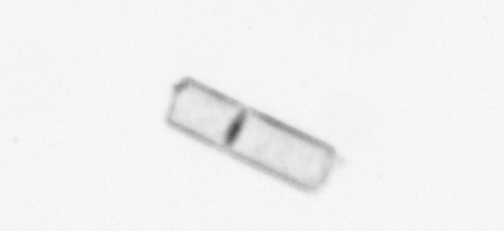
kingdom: Chromista
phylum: Ochrophyta
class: Bacillariophyceae
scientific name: Bacillariophyceae
